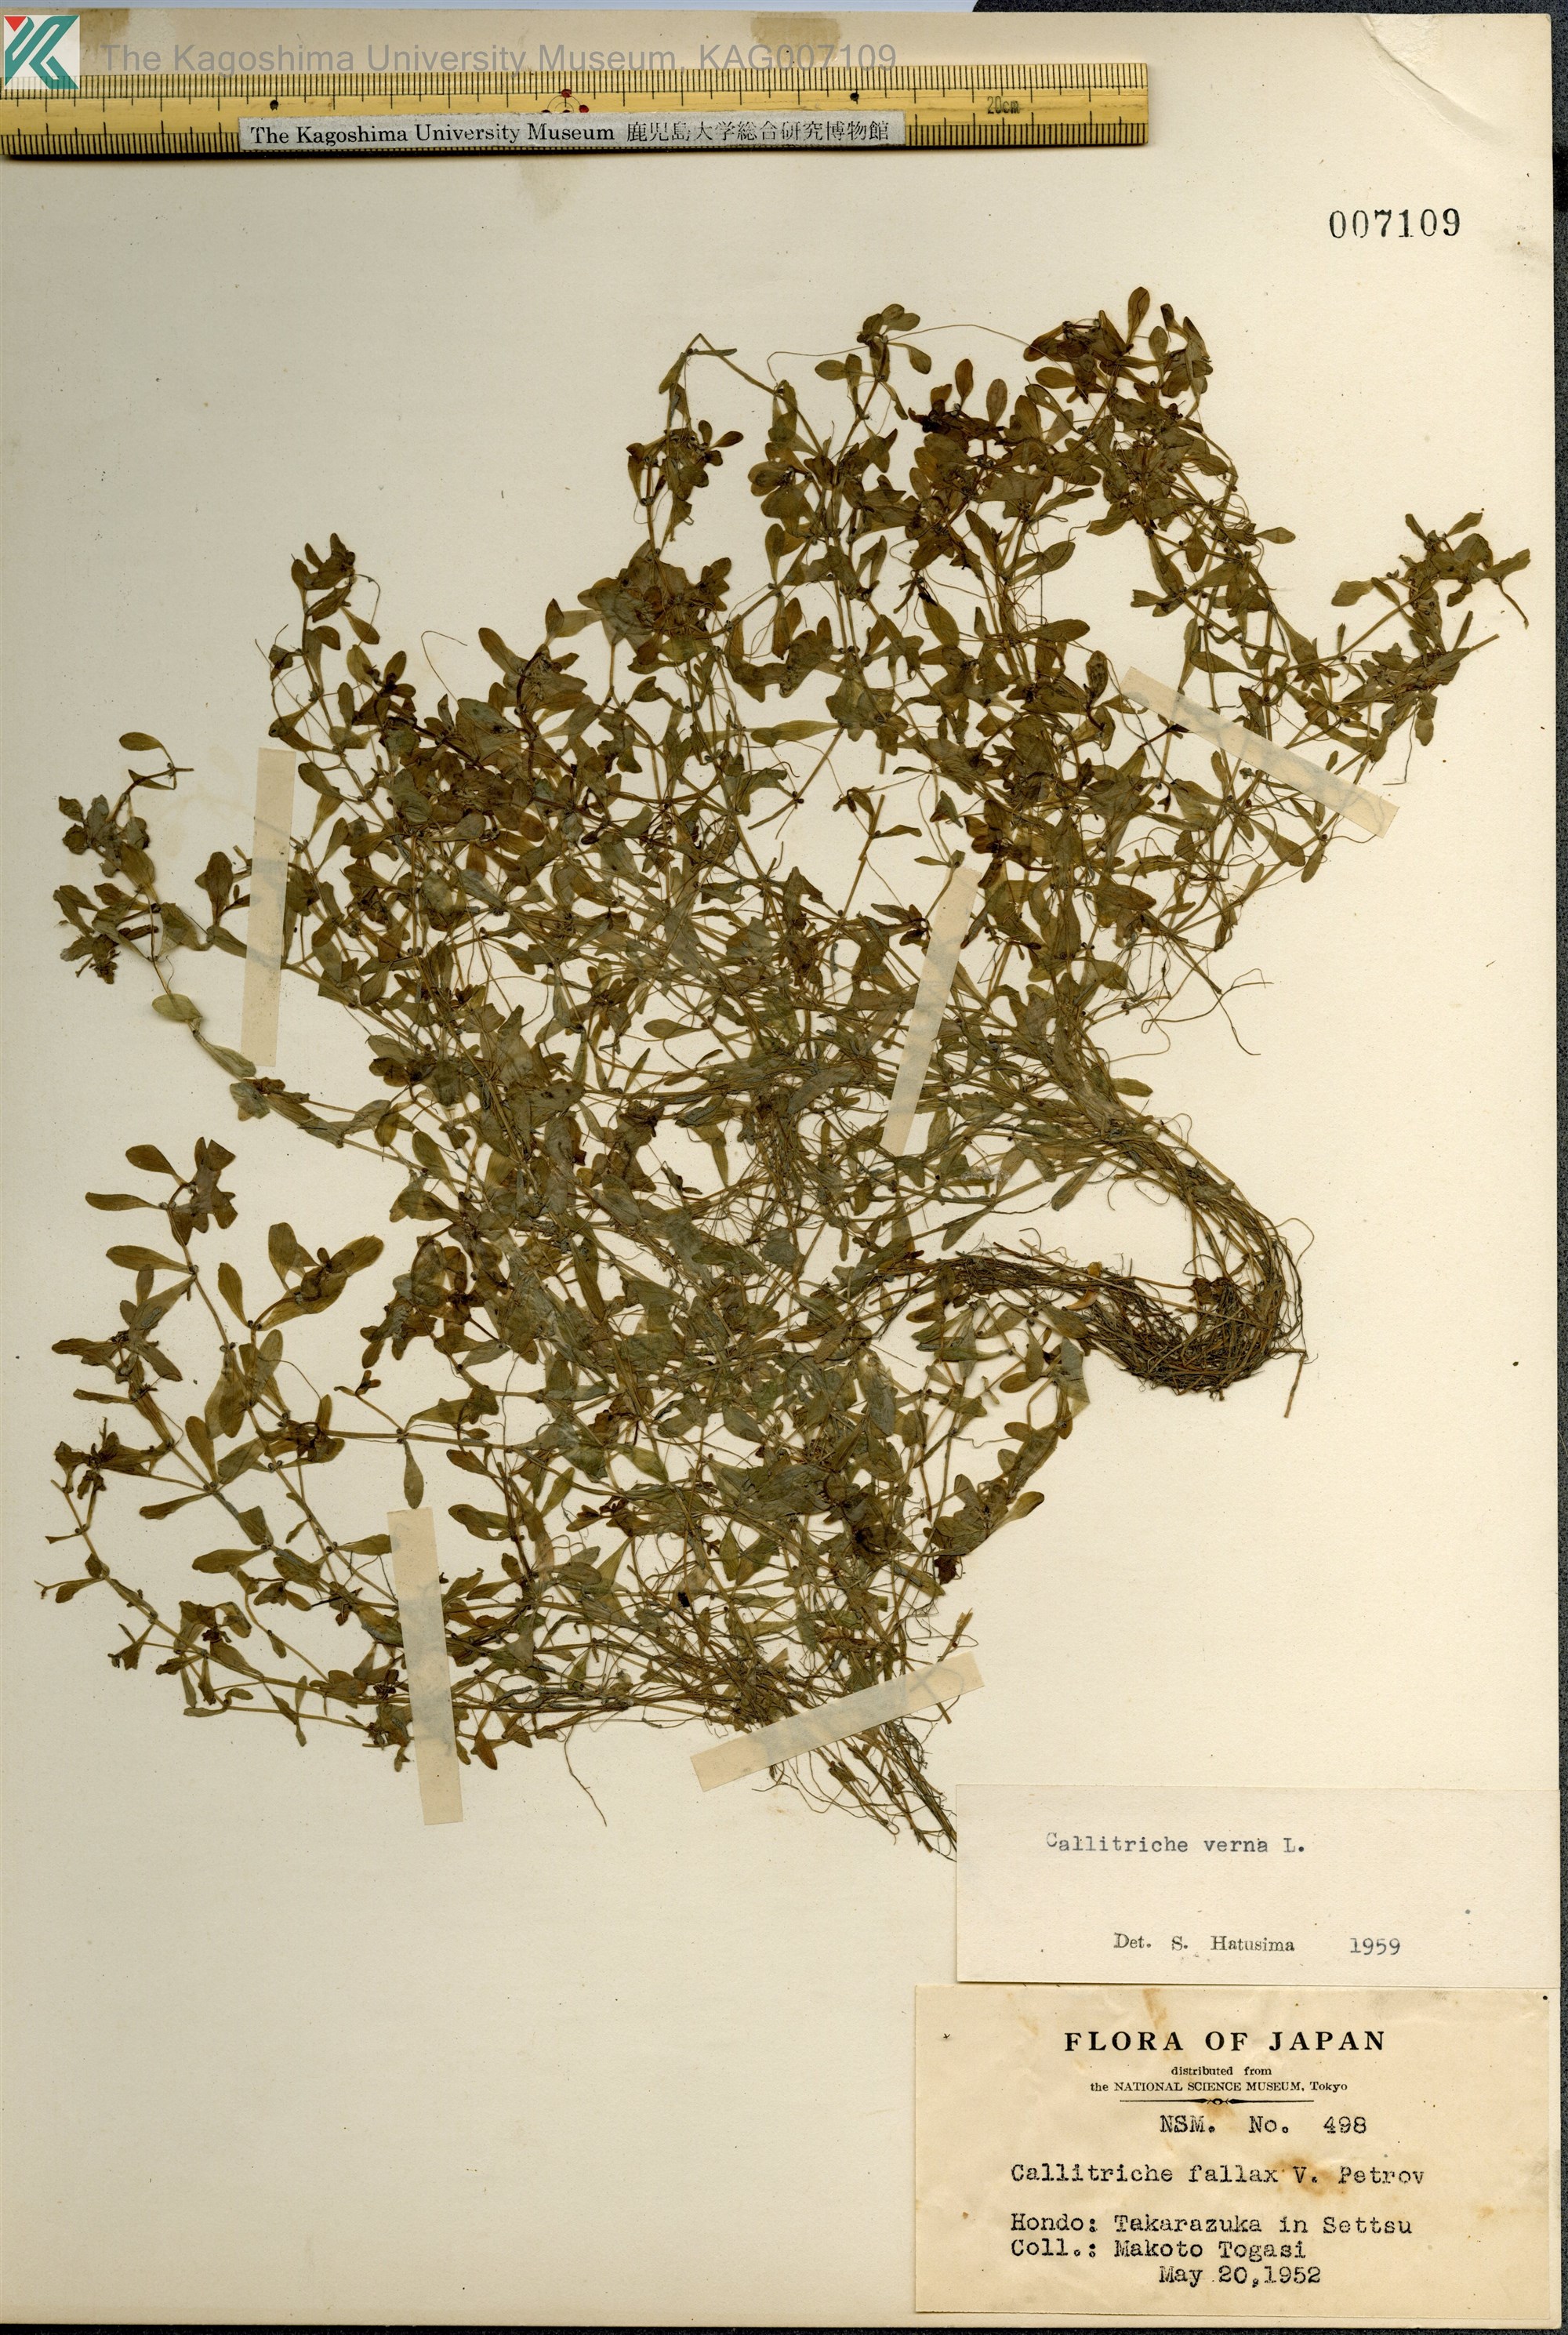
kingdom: Plantae
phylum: Tracheophyta
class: Magnoliopsida
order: Lamiales
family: Plantaginaceae
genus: Callitriche
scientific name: Callitriche palustris
